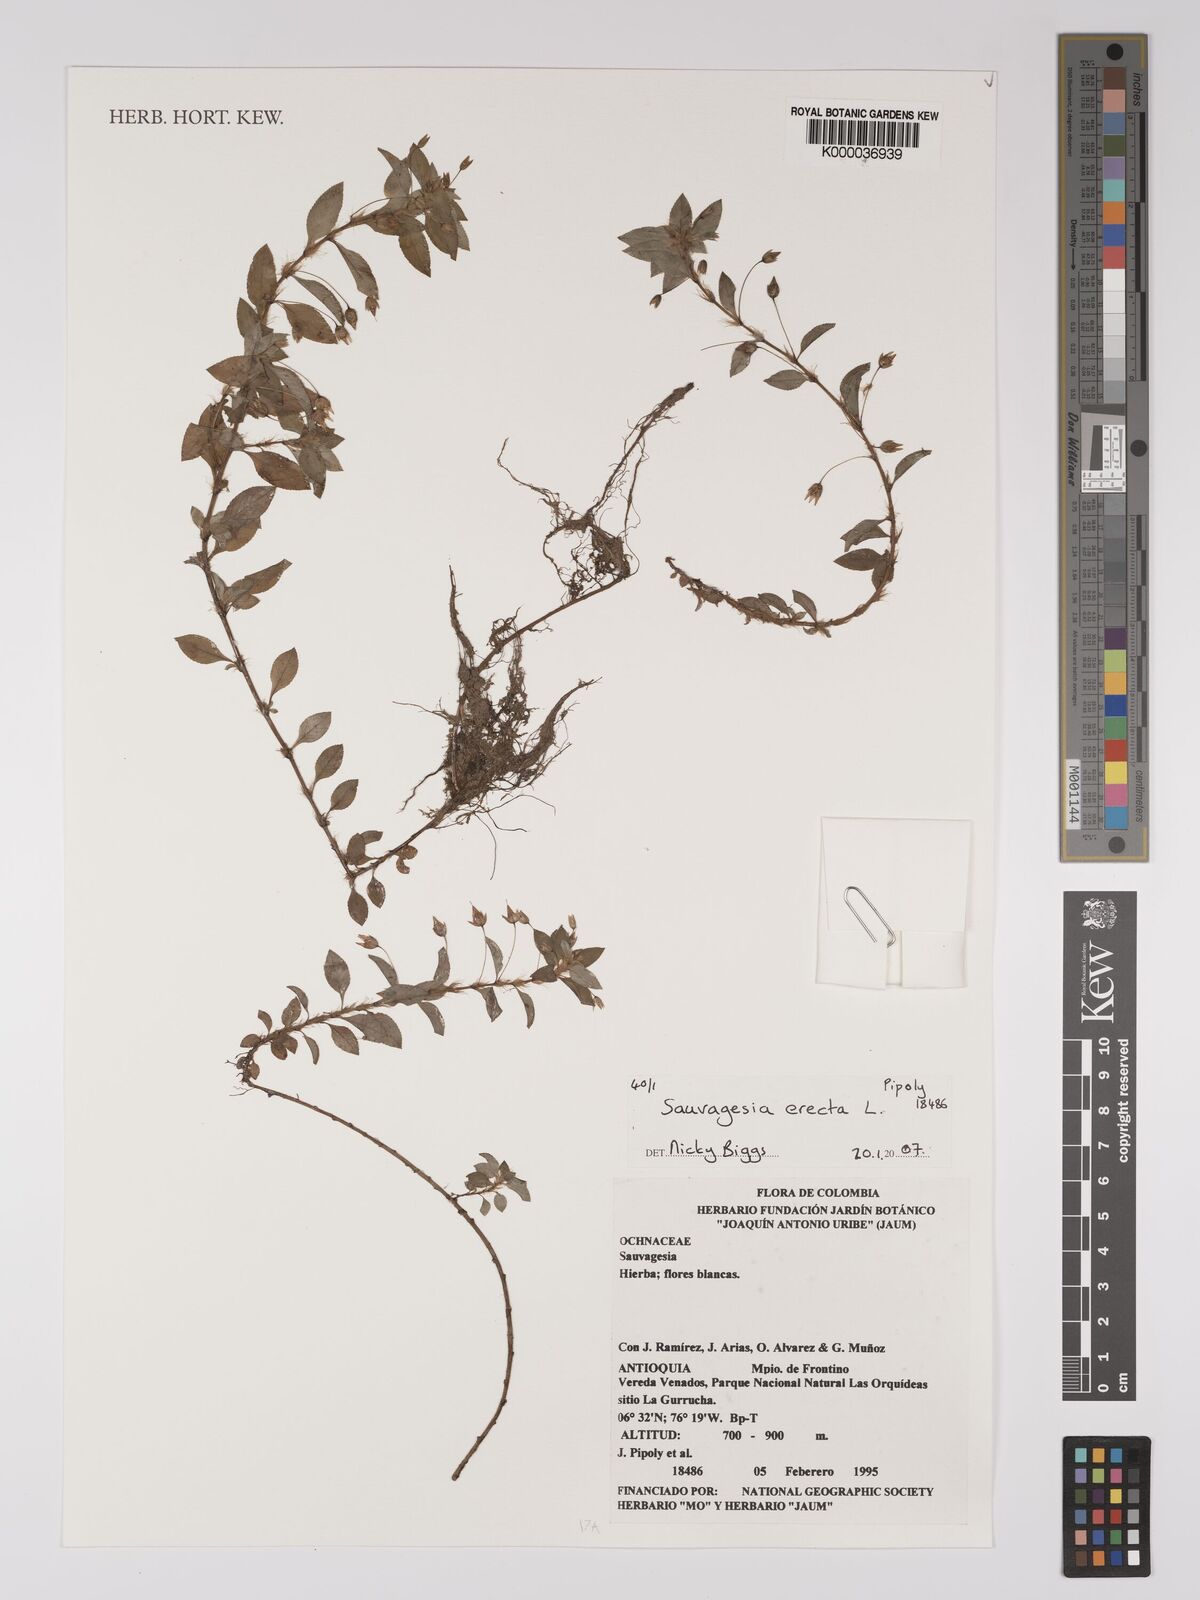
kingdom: Plantae
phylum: Tracheophyta
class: Magnoliopsida
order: Malpighiales
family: Ochnaceae
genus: Sauvagesia
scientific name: Sauvagesia erecta
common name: Creole tea
